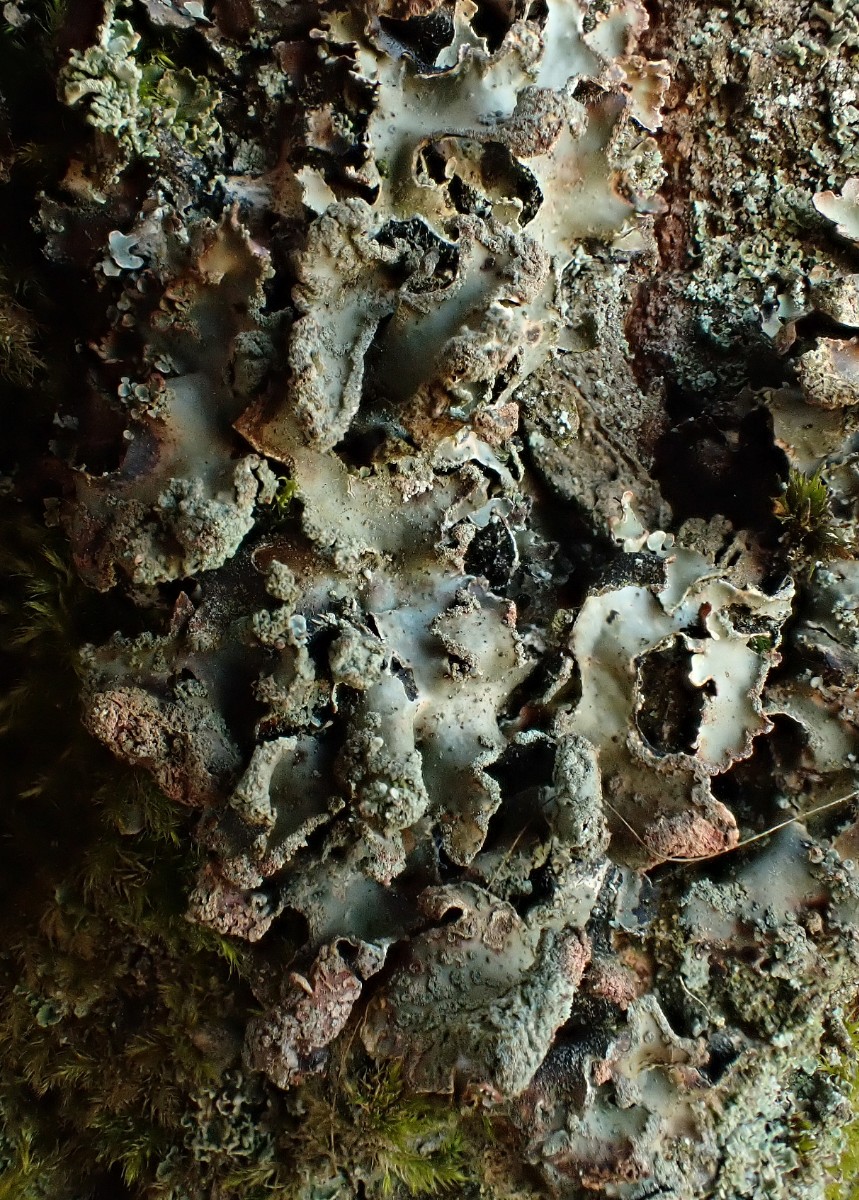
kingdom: Fungi
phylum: Ascomycota
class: Lecanoromycetes
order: Lecanorales
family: Parmeliaceae
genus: Parmelia
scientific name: Parmelia sulcata
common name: rynket skållav
